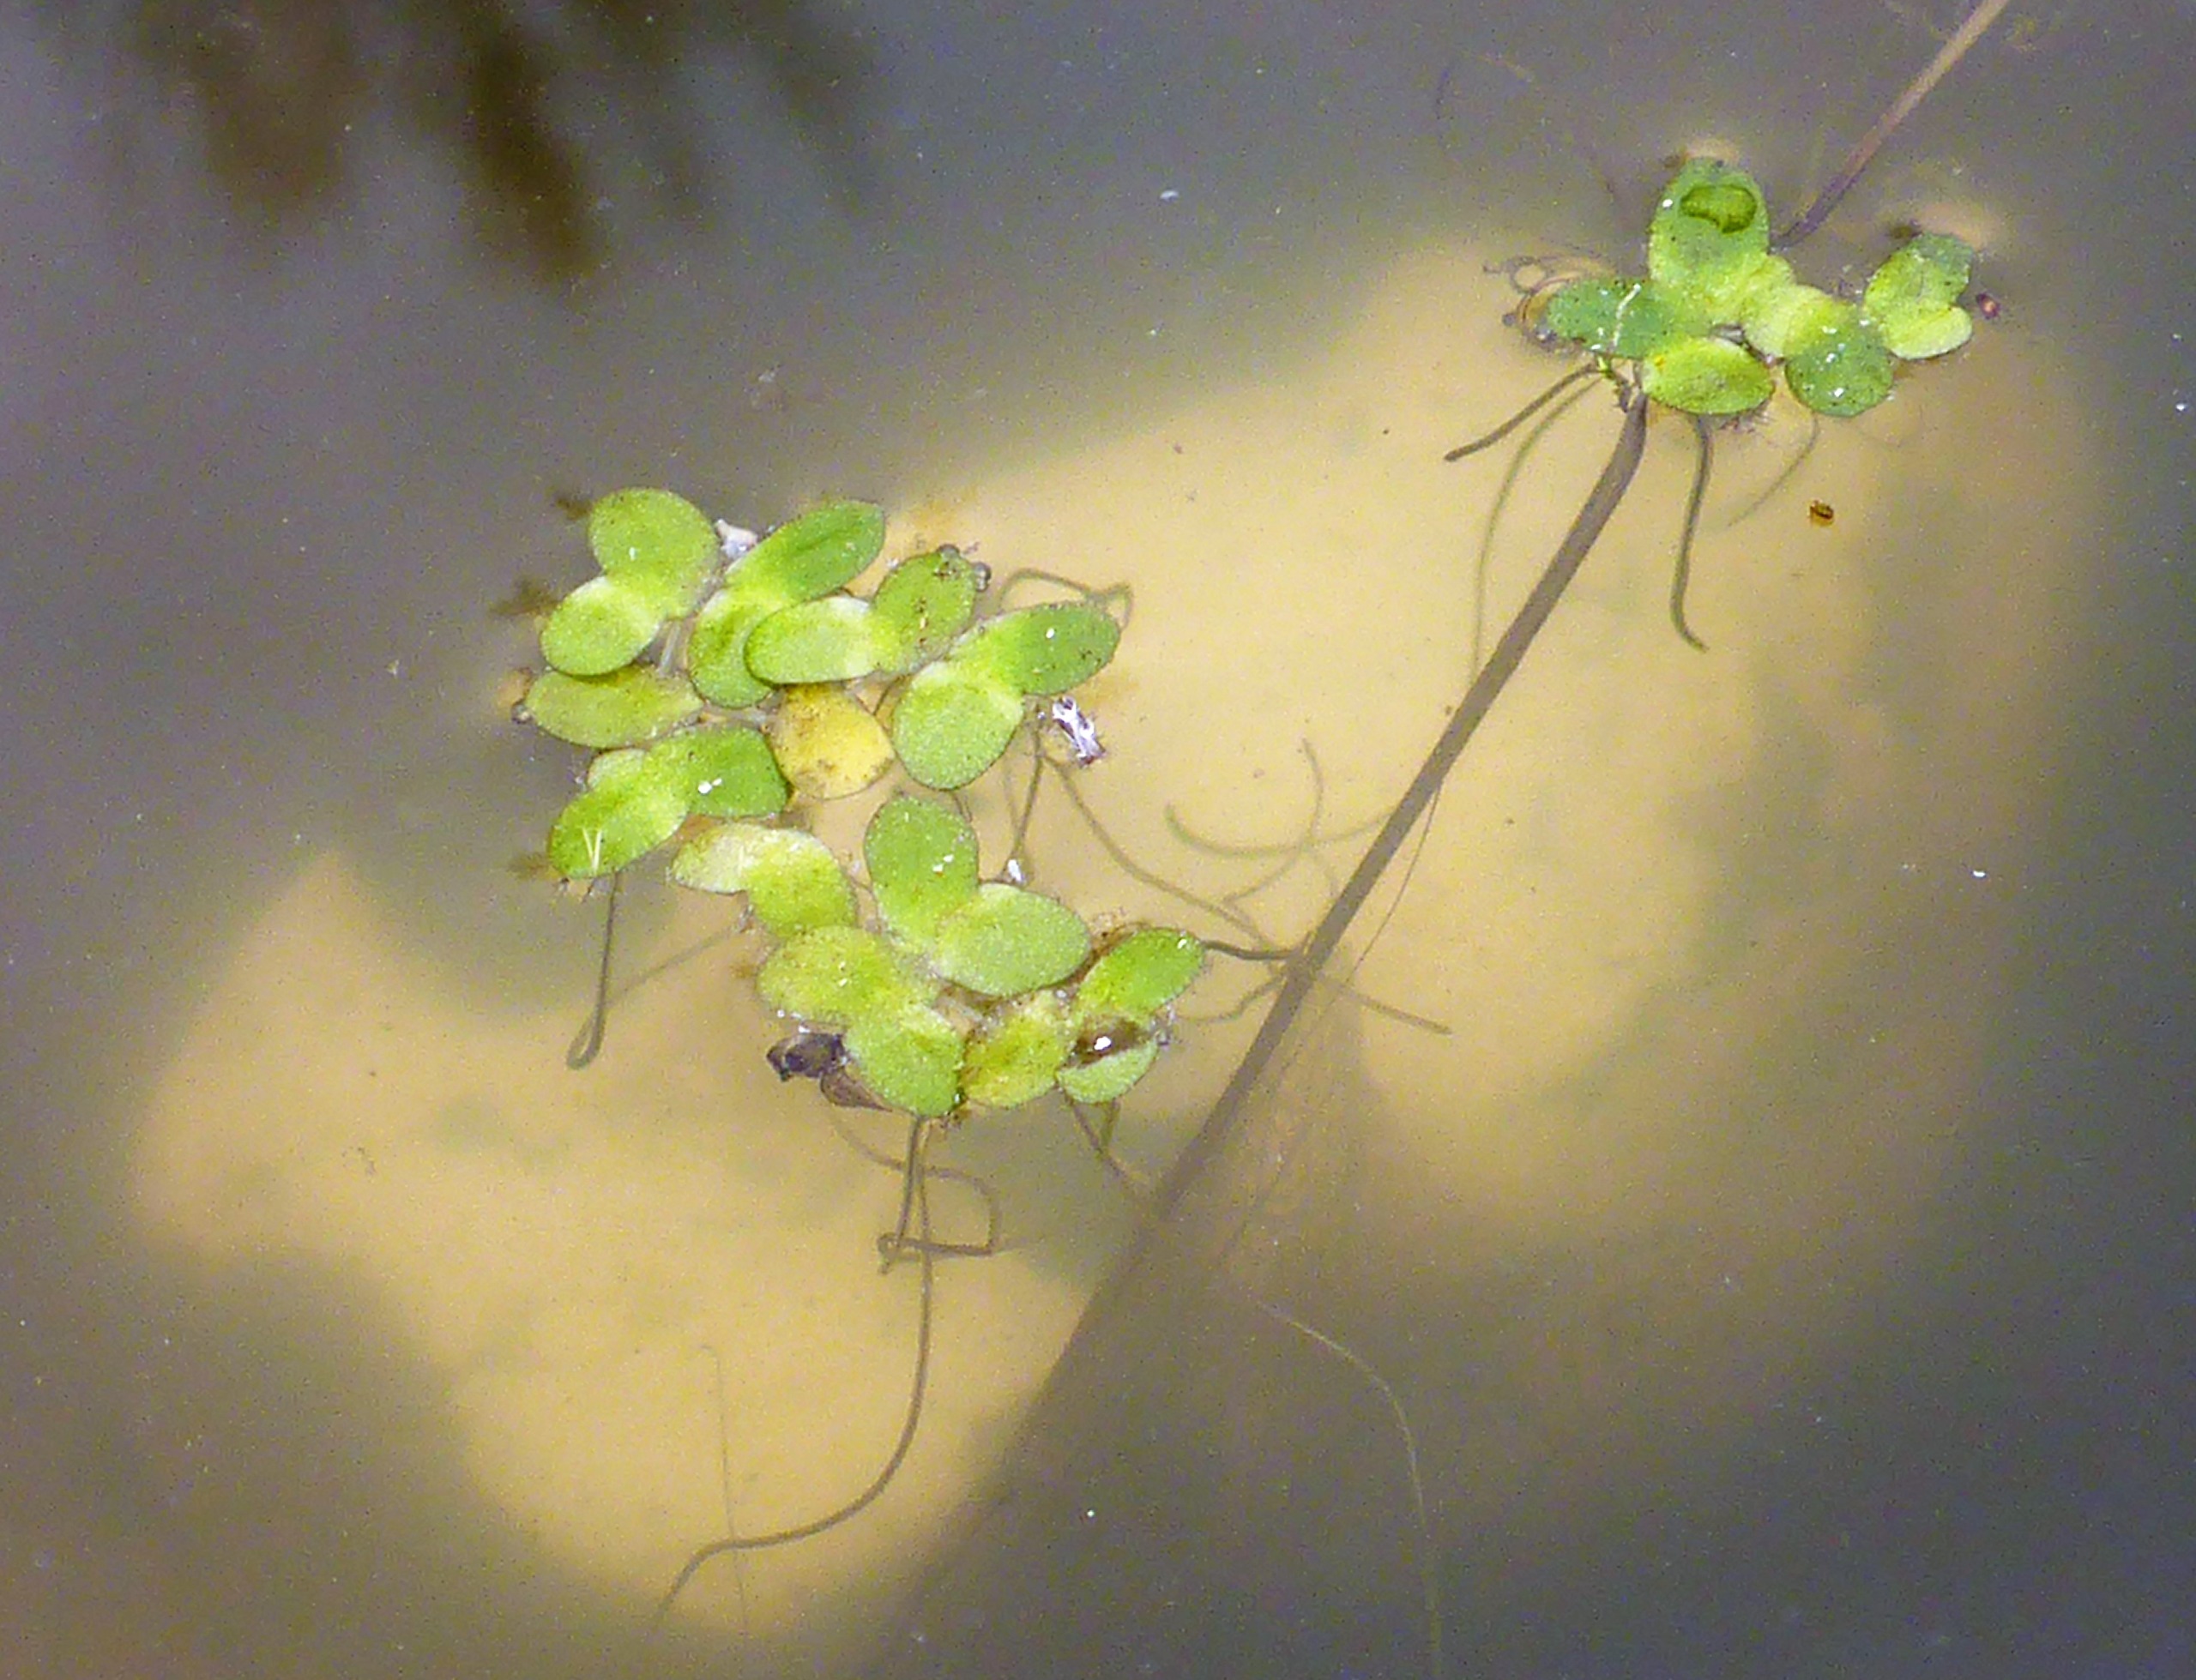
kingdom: Plantae
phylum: Tracheophyta
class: Liliopsida
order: Alismatales
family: Araceae
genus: Lemna
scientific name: Lemna minor
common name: Liden andemad
